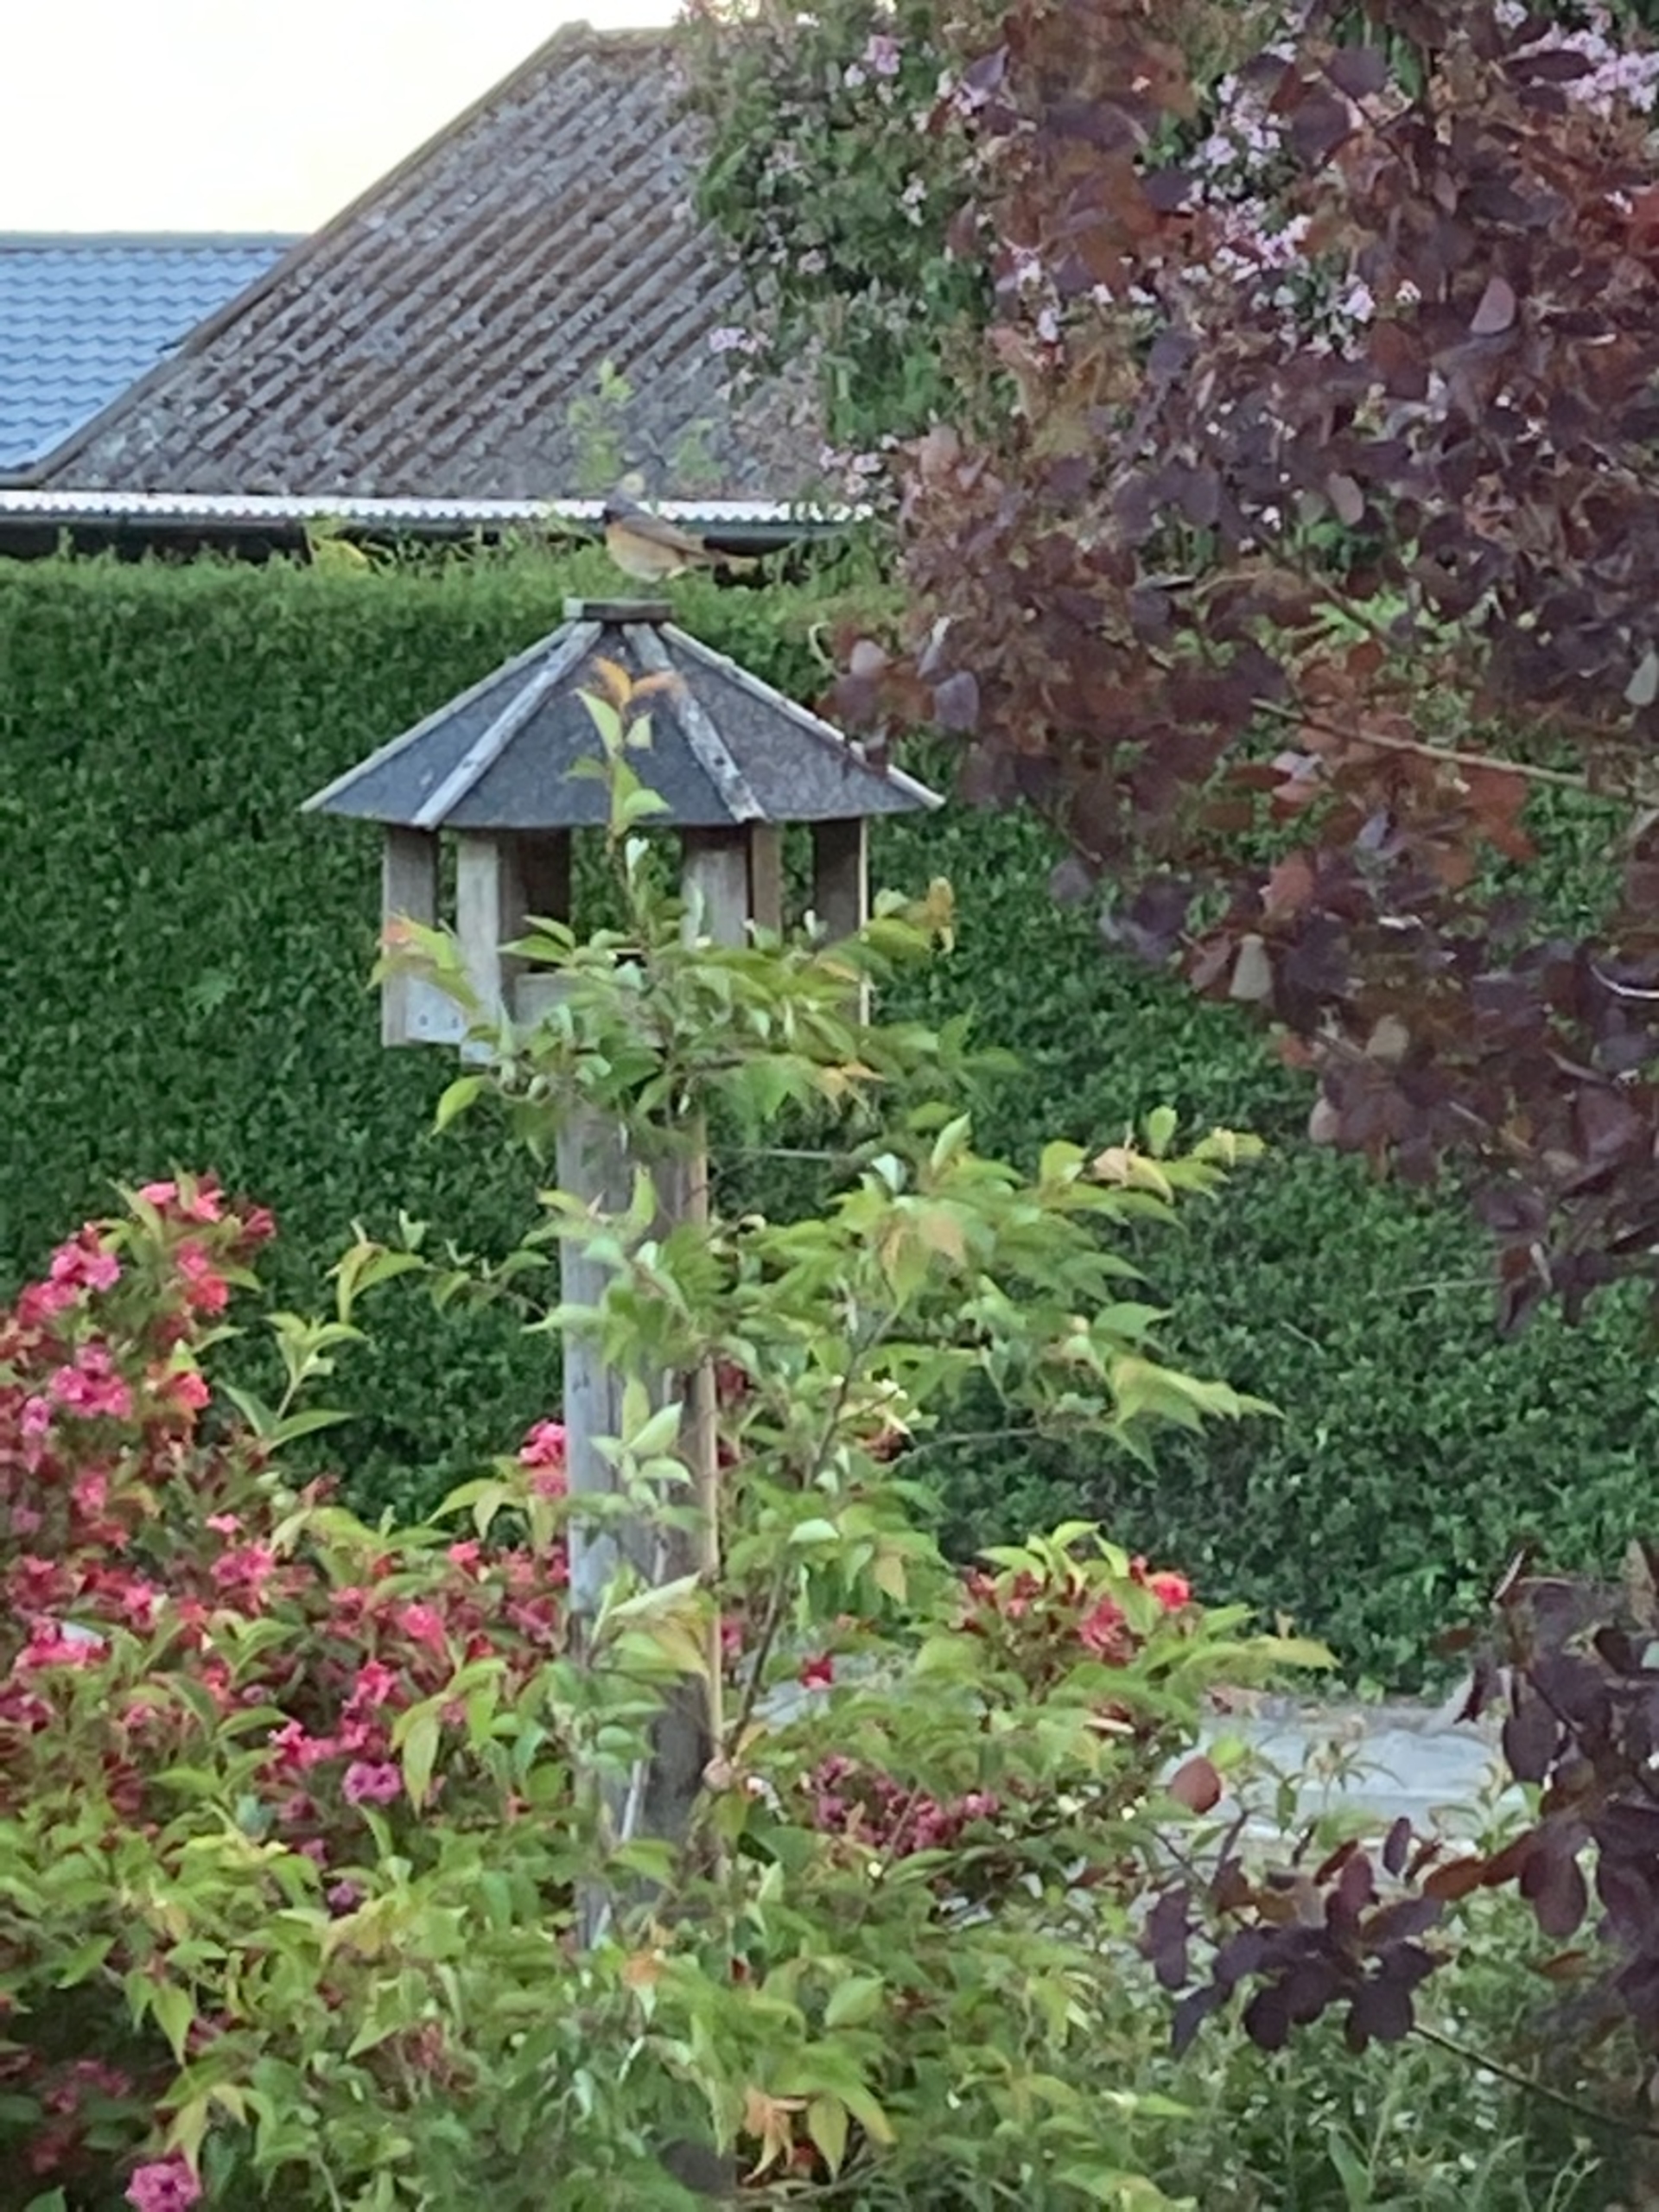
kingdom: Animalia
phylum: Chordata
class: Aves
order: Passeriformes
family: Muscicapidae
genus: Phoenicurus
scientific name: Phoenicurus phoenicurus
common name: Rødstjert
